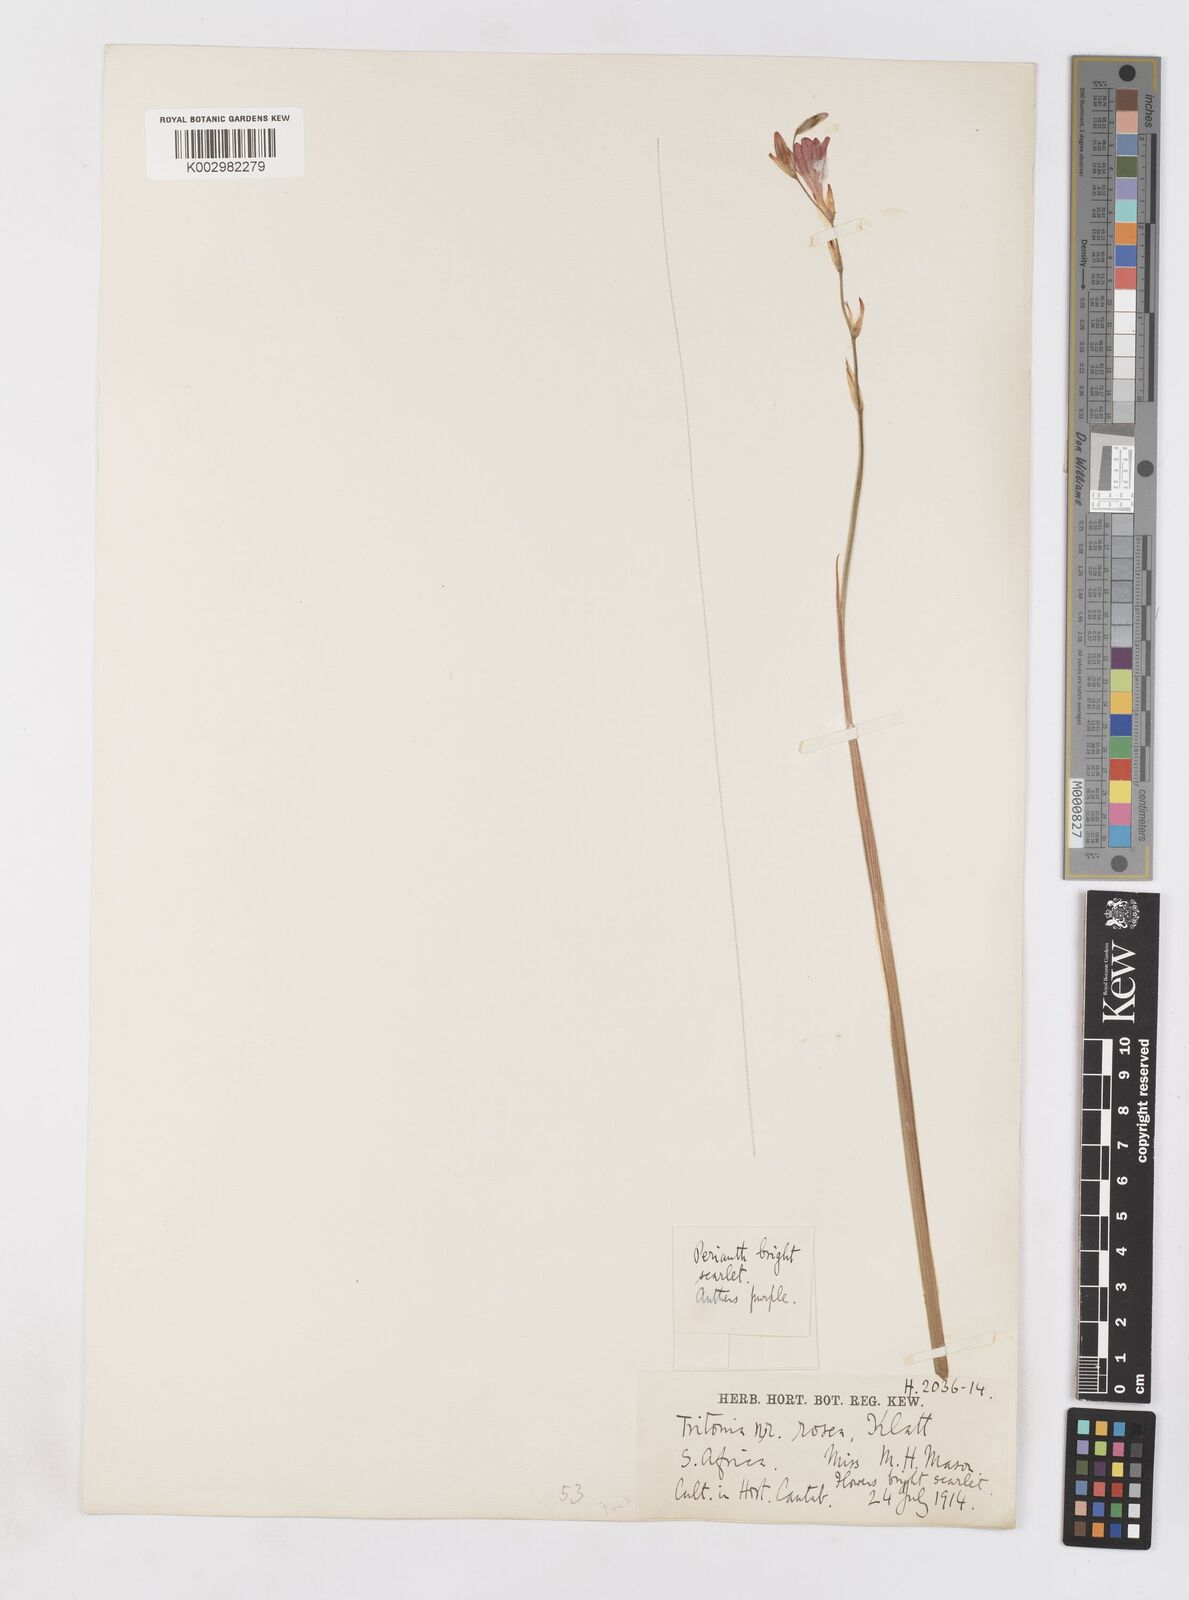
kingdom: Plantae
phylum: Tracheophyta
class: Liliopsida
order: Asparagales
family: Iridaceae
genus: Tritonia
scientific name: Tritonia disticha
